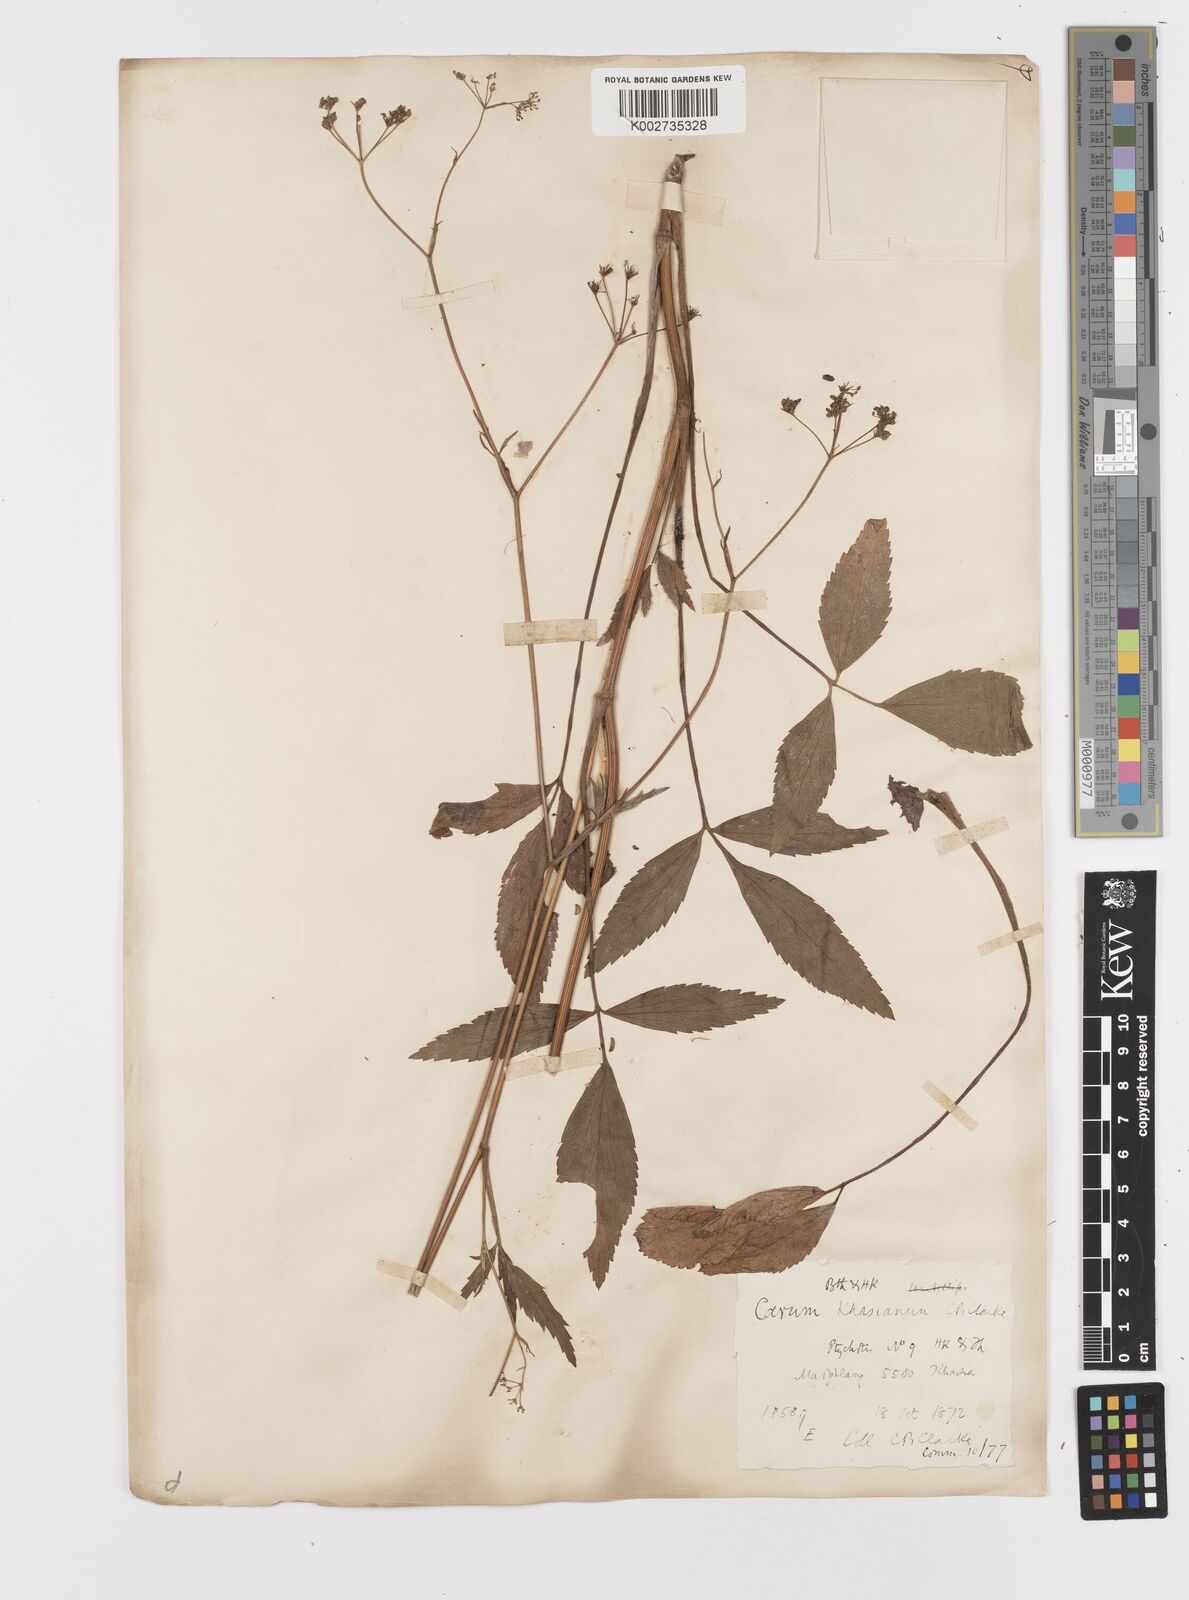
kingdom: Plantae
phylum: Tracheophyta
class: Magnoliopsida
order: Apiales
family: Apiaceae
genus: Trachyspermum
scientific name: Trachyspermum khasianum
